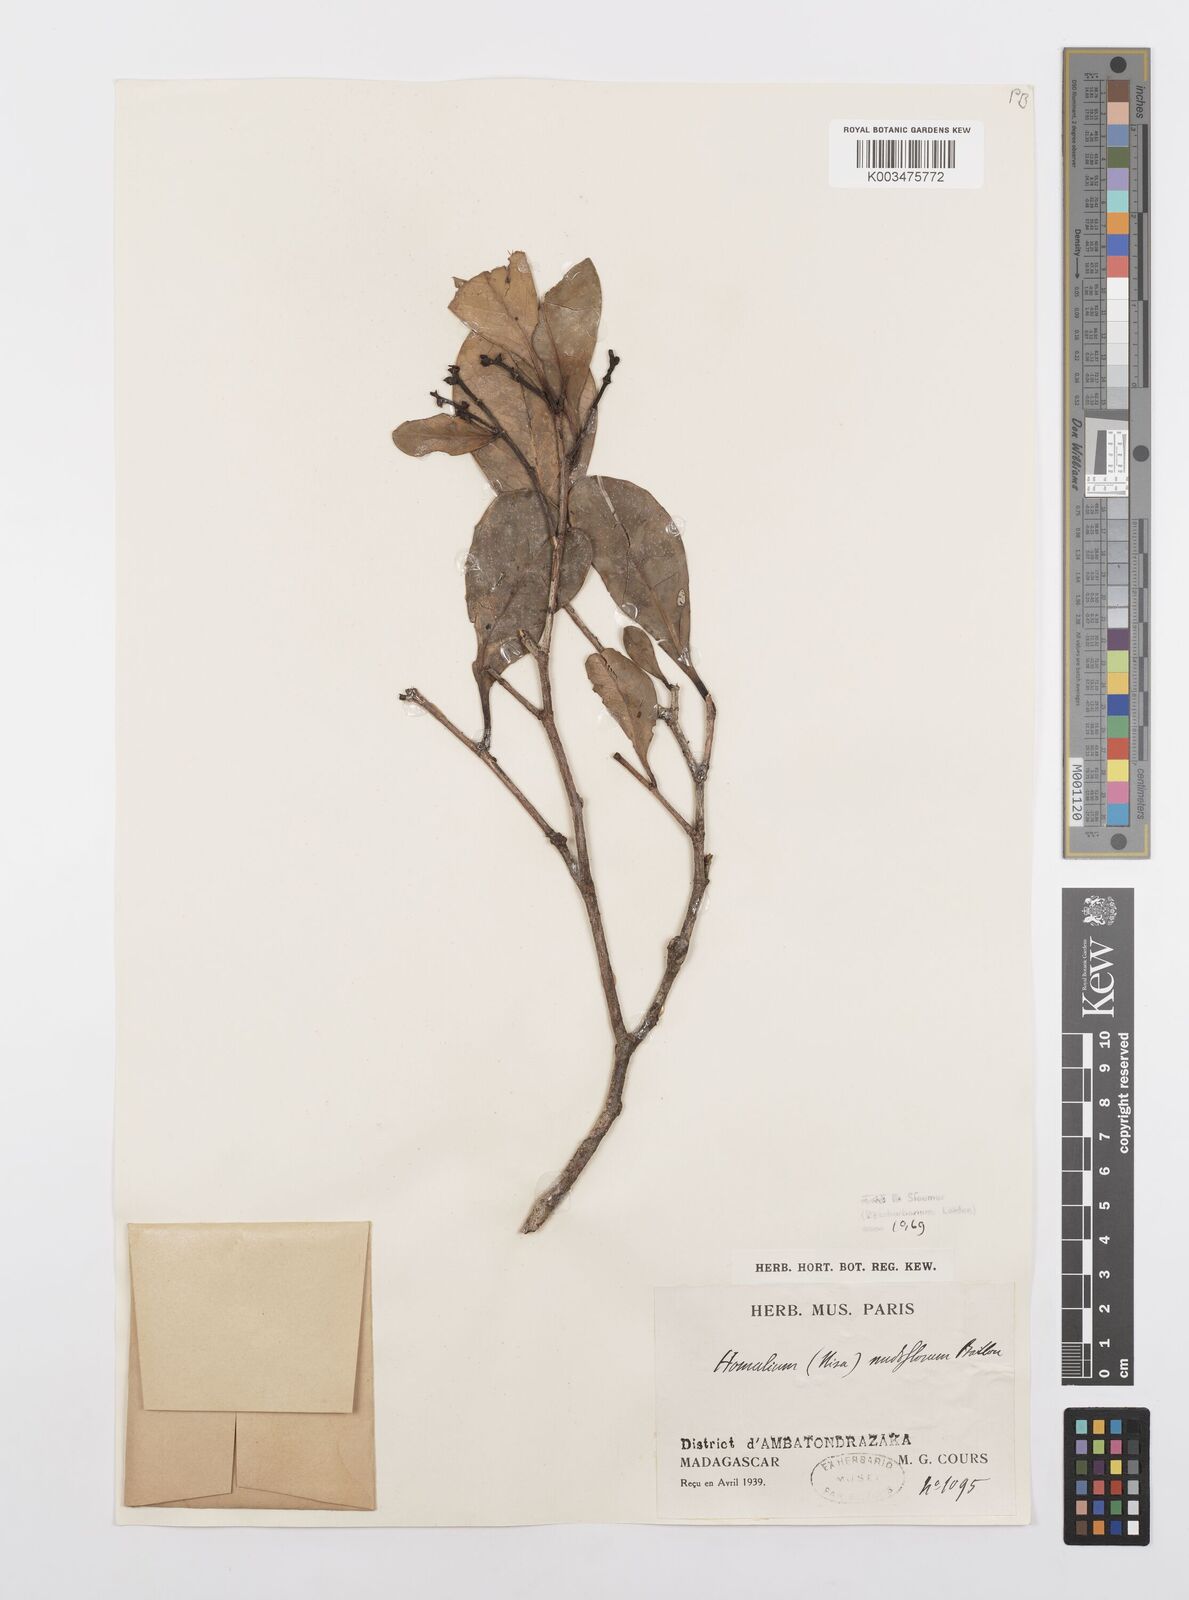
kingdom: Plantae
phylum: Tracheophyta
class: Magnoliopsida
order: Malpighiales
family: Salicaceae
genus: Homalium
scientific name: Homalium nudiflorum
